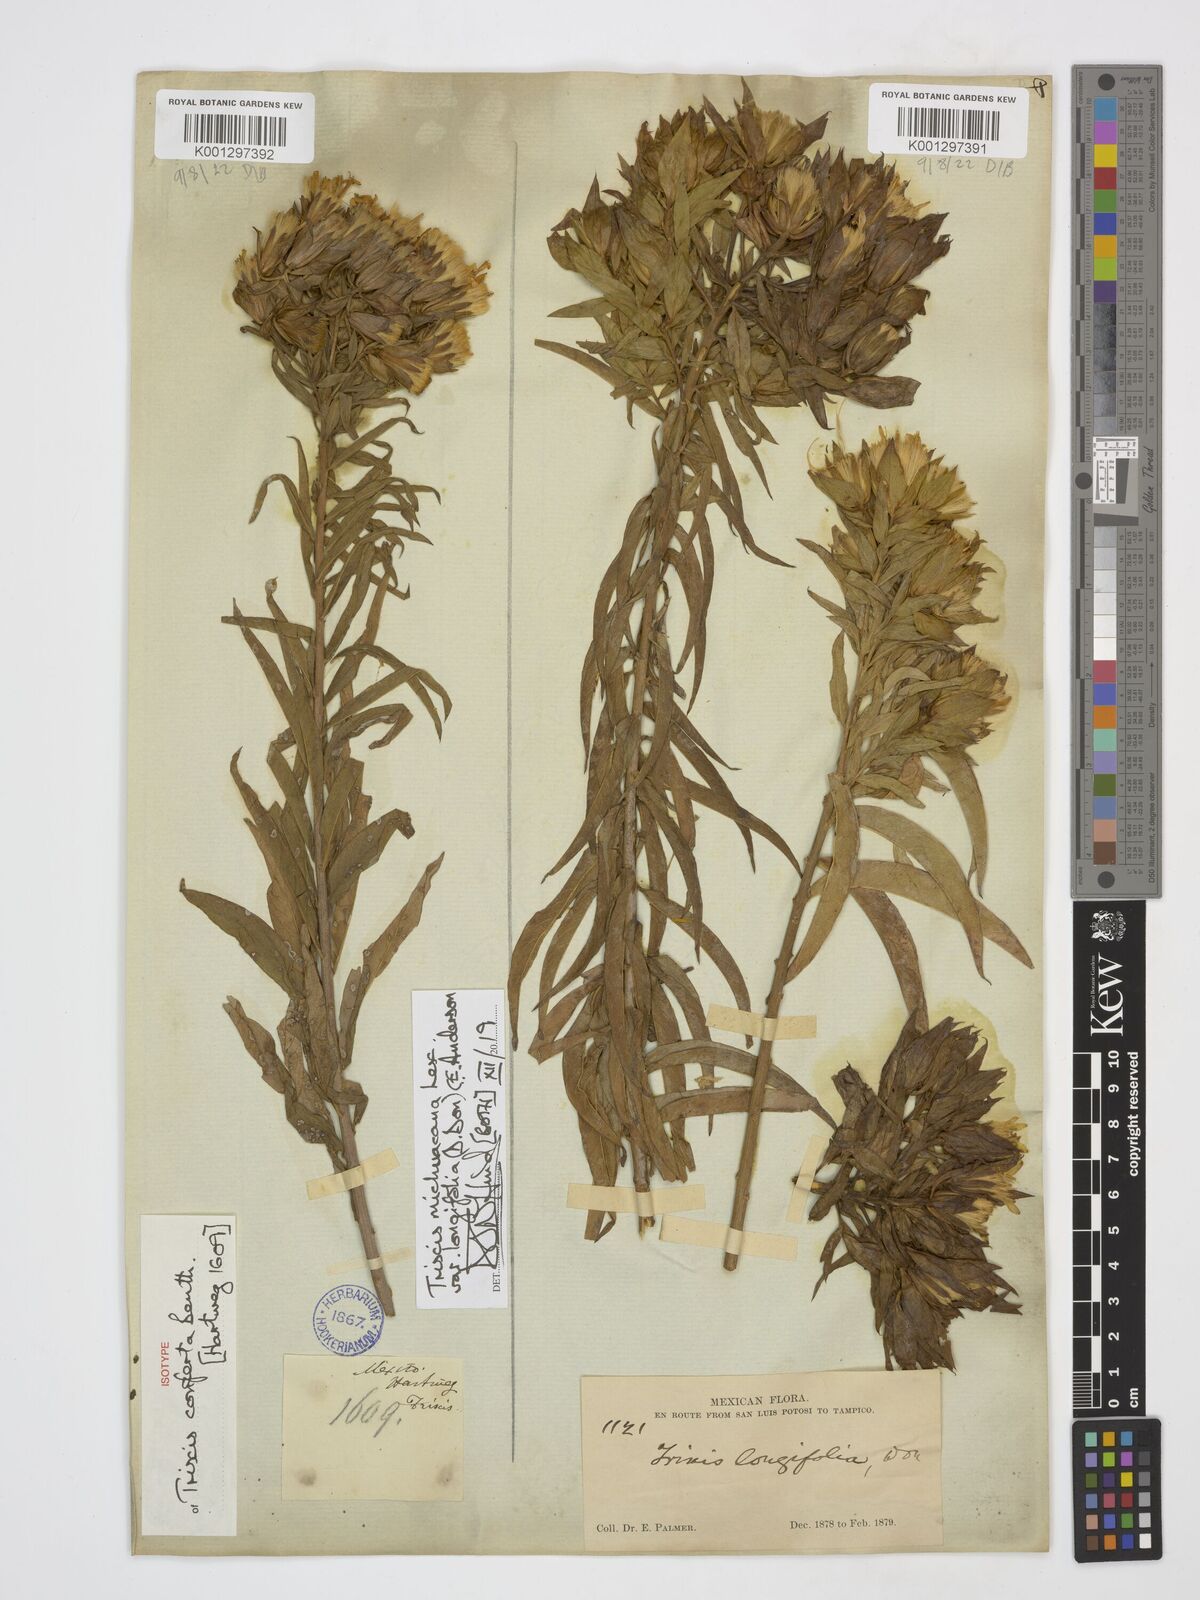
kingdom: Plantae
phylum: Tracheophyta
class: Magnoliopsida
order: Asterales
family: Asteraceae
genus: Trixis
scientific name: Trixis michoacana
